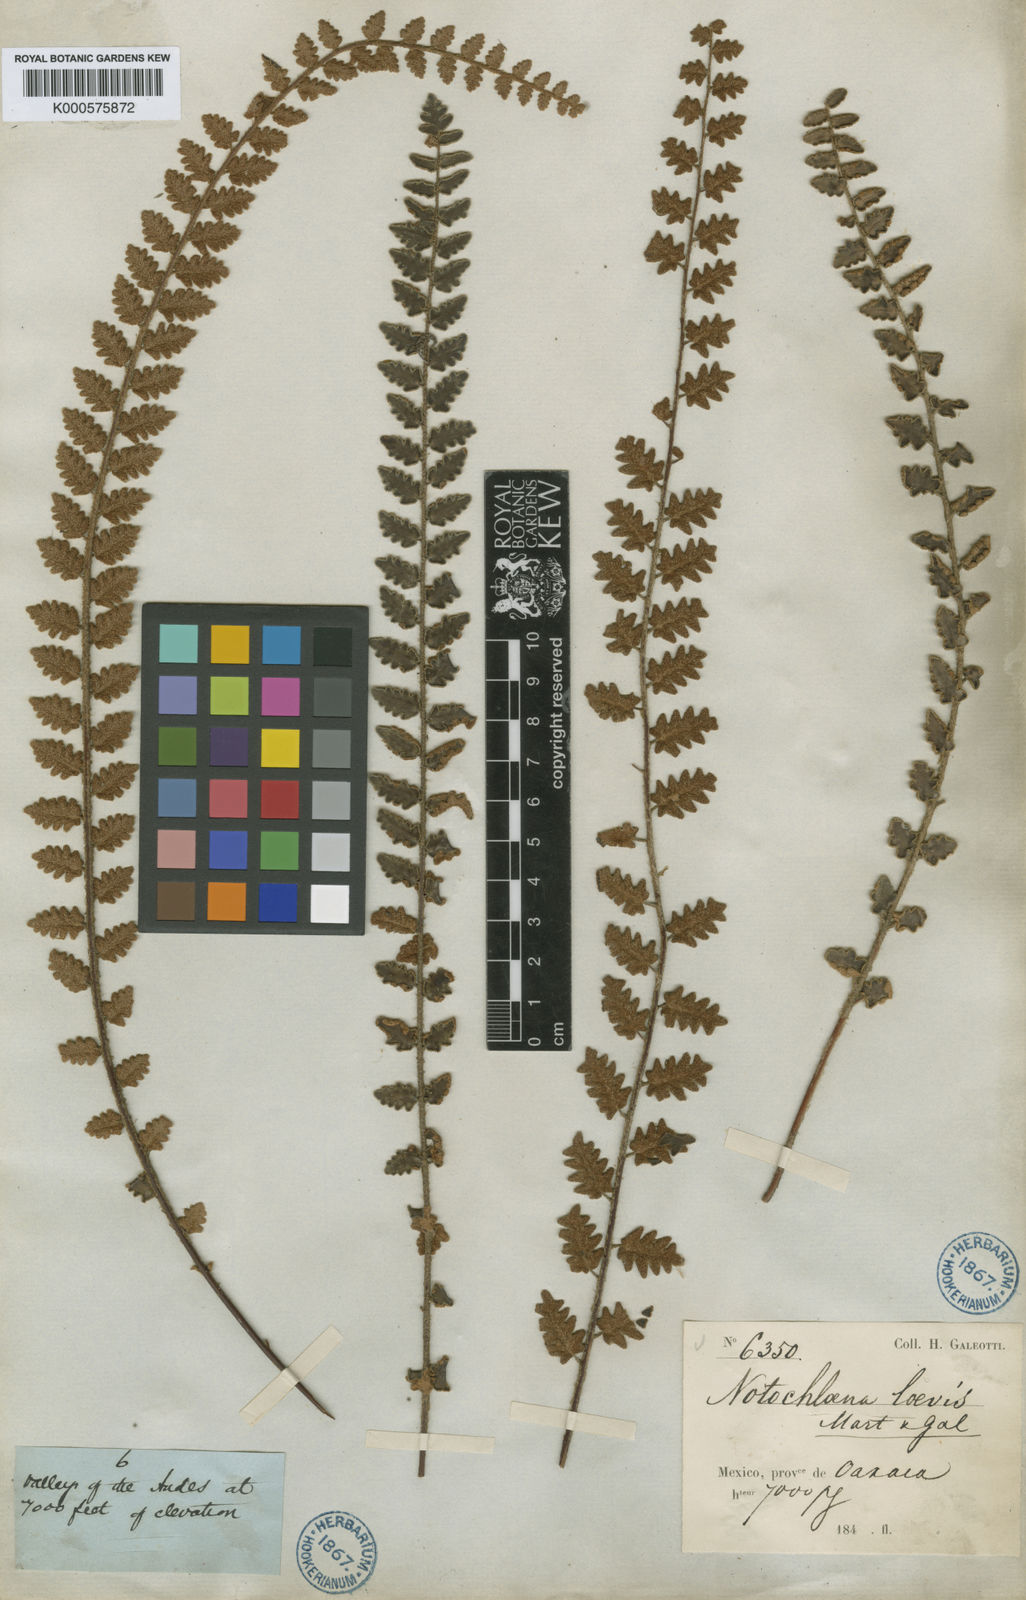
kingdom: Plantae
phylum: Tracheophyta
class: Polypodiopsida
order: Polypodiales
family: Pteridaceae
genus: Astrolepis
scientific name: Astrolepis sinuata
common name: Wavy scaly cloakfern
